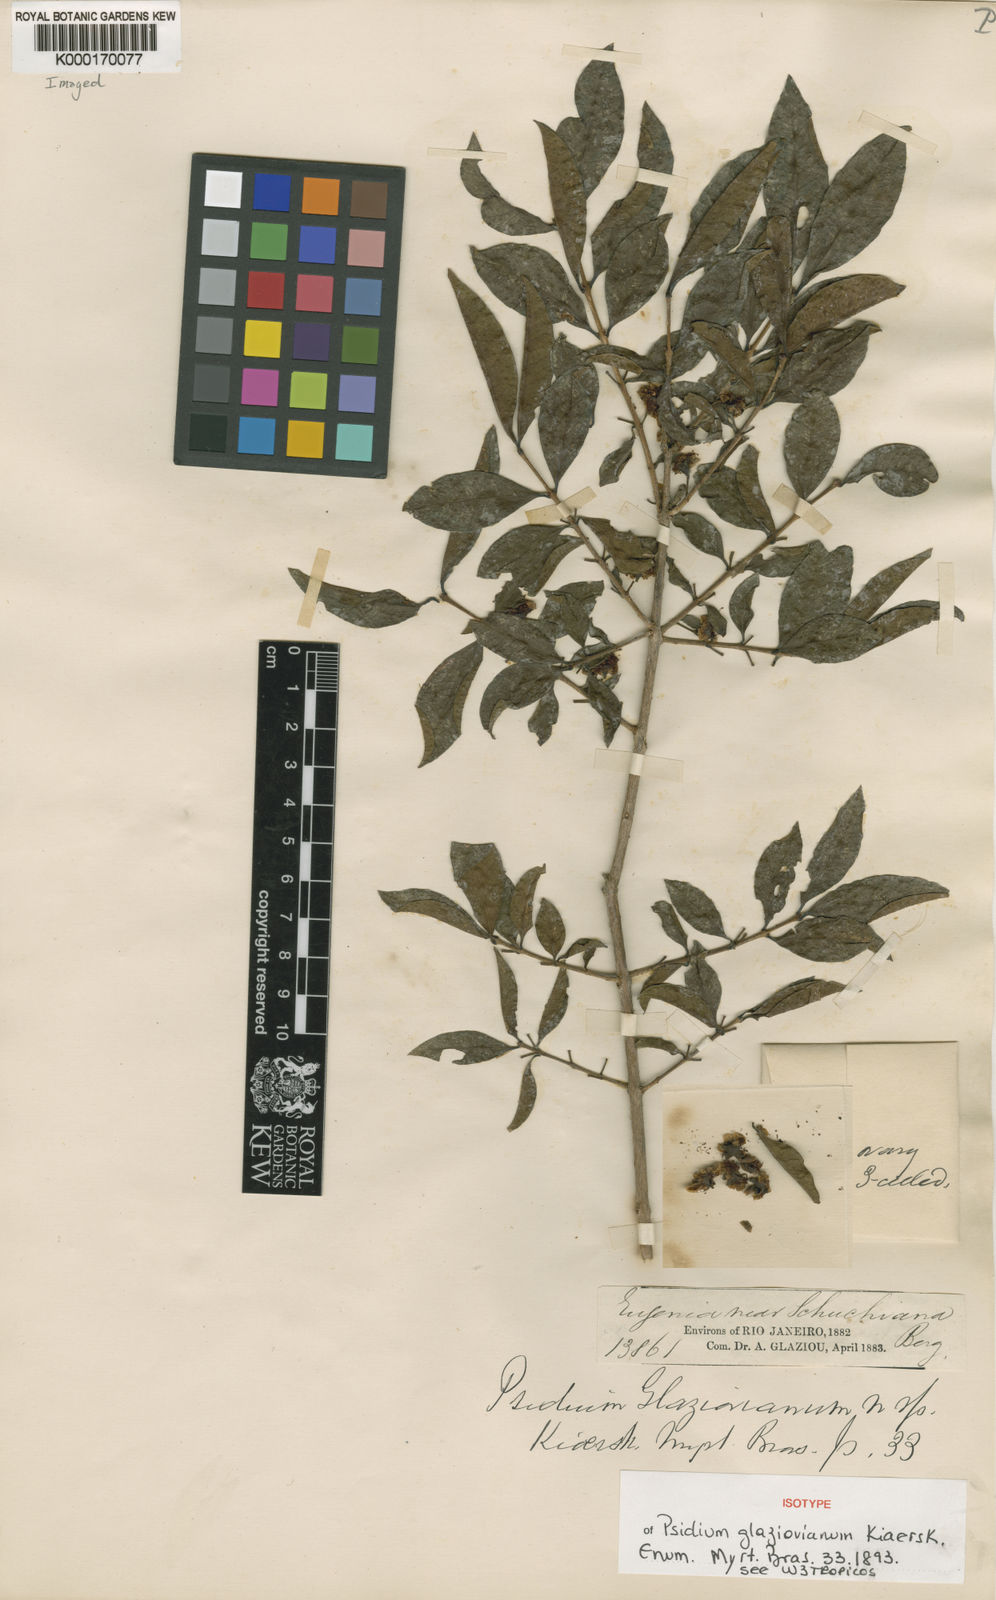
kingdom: Plantae
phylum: Tracheophyta
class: Magnoliopsida
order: Myrtales
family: Myrtaceae
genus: Psidium
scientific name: Psidium glaziovianum
